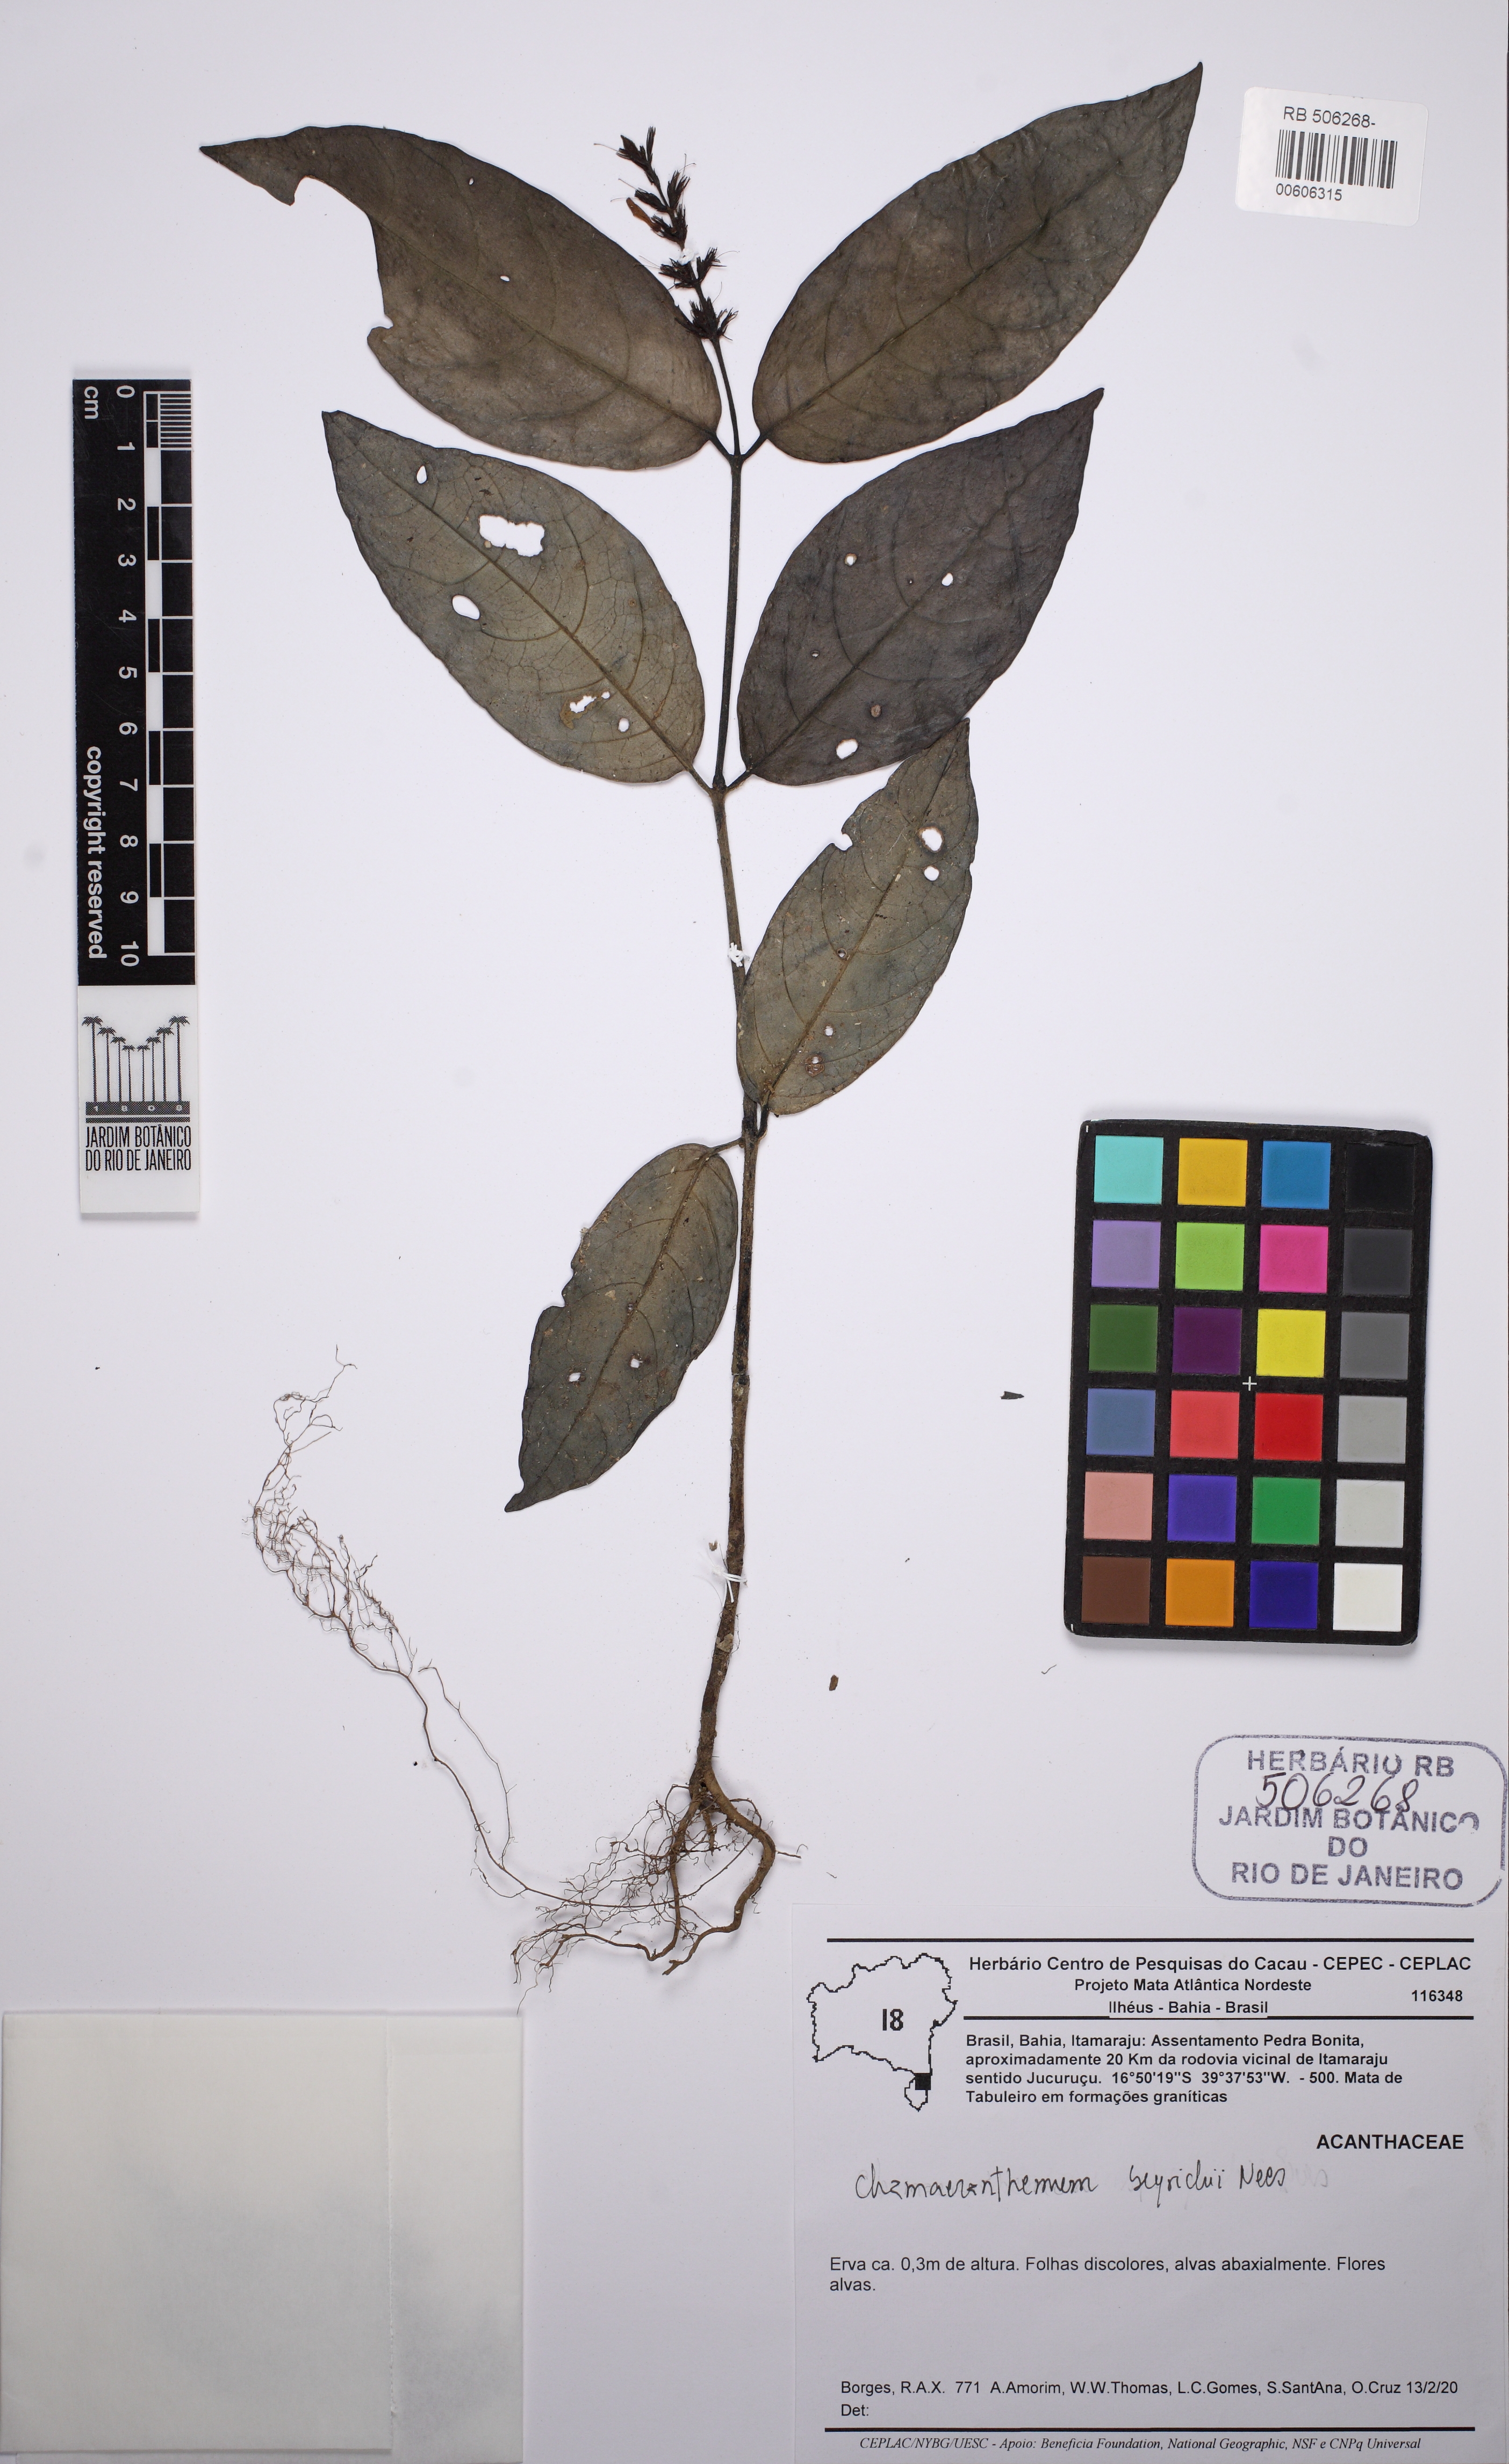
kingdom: Plantae
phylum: Tracheophyta
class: Magnoliopsida
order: Lamiales
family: Acanthaceae
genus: Chamaeranthemum
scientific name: Chamaeranthemum beyrichii
